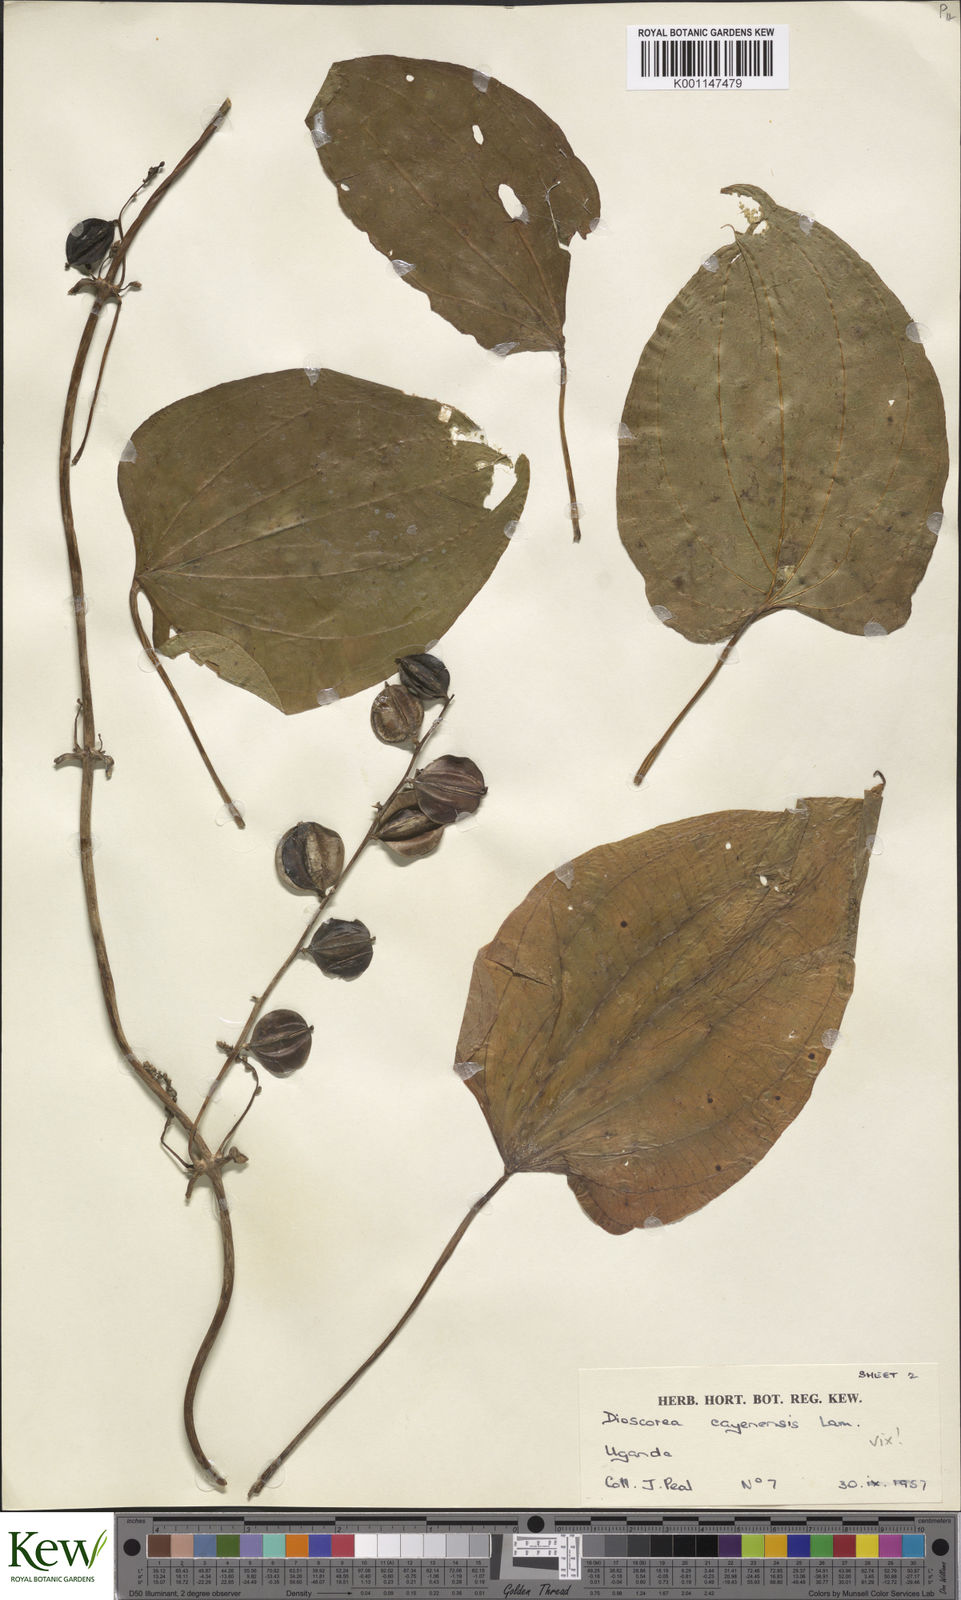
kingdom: Plantae
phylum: Tracheophyta
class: Liliopsida
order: Dioscoreales
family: Dioscoreaceae
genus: Dioscorea
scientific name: Dioscorea
